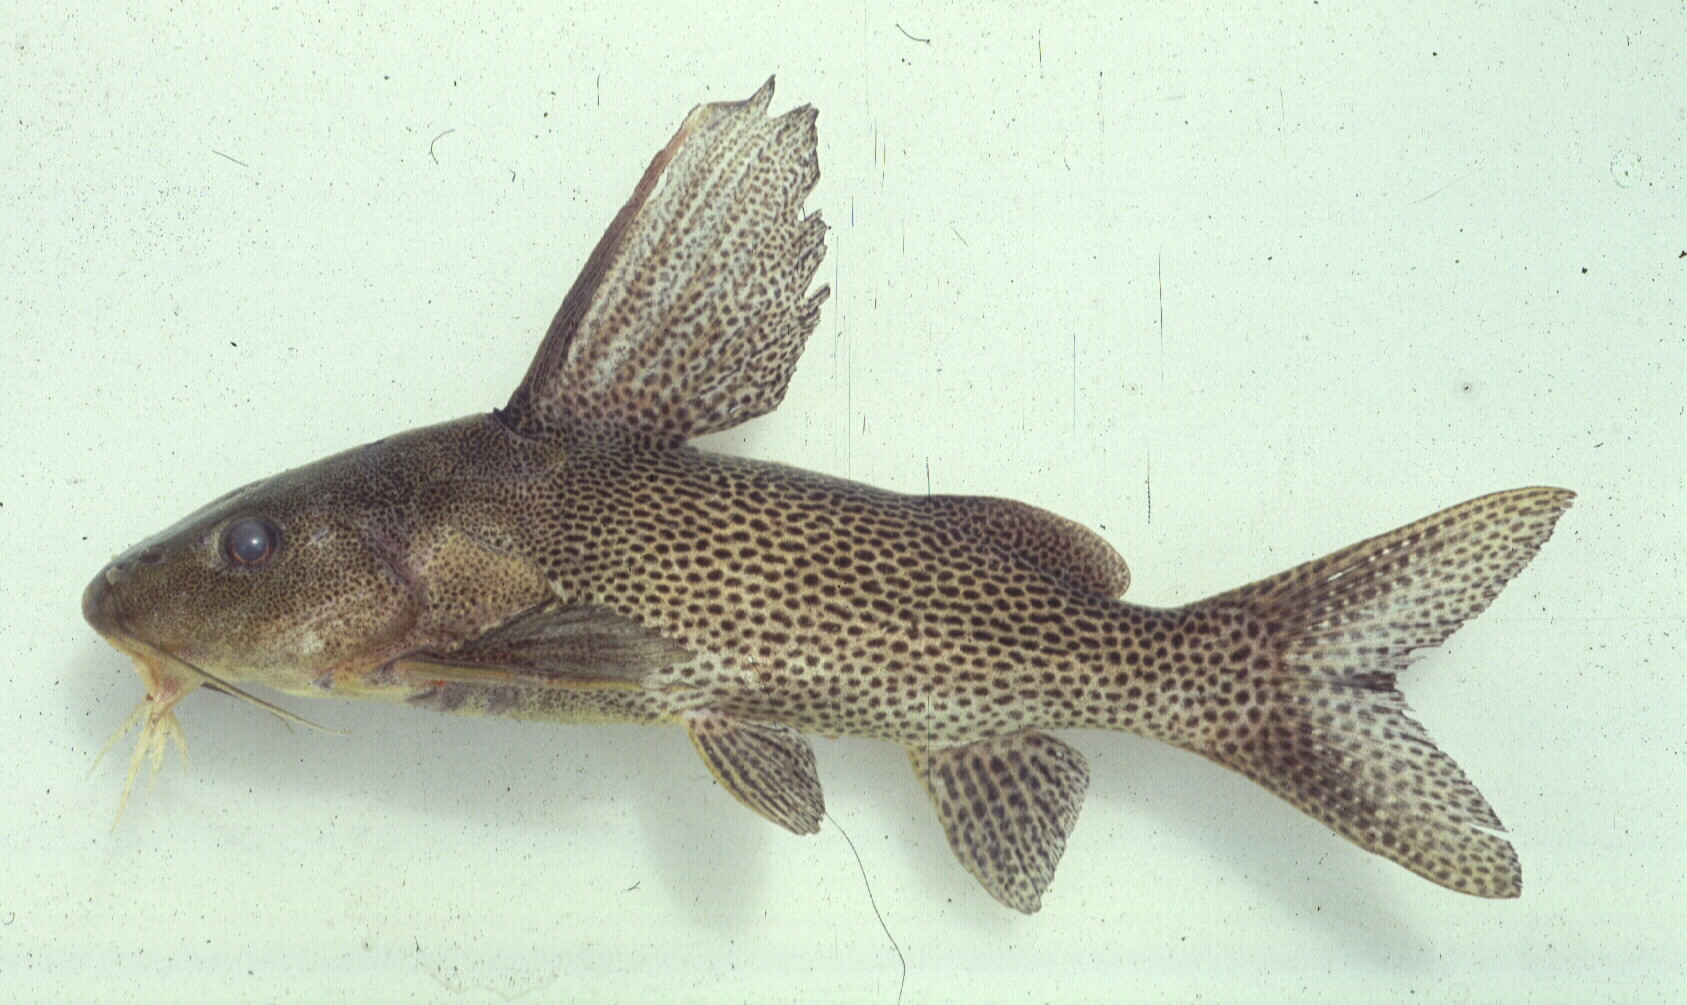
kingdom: Animalia
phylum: Chordata
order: Siluriformes
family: Mochokidae
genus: Synodontis
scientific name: Synodontis woosnami
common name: Upper zambezi squeaker
